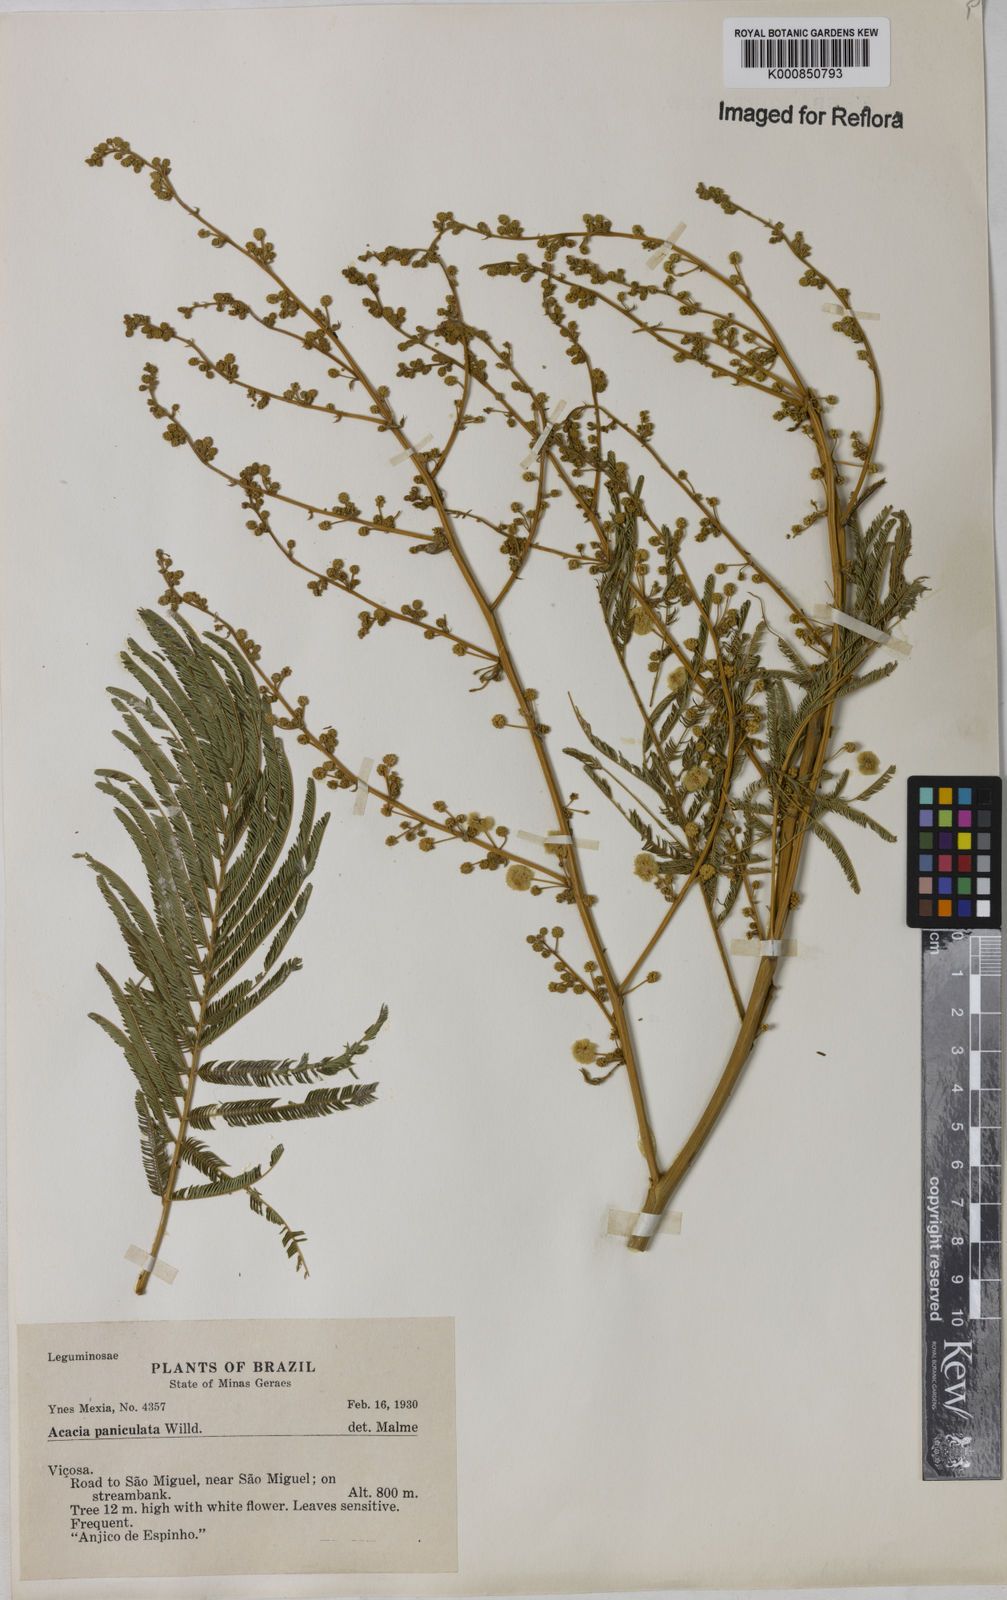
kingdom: Plantae
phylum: Tracheophyta
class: Magnoliopsida
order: Fabales
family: Fabaceae
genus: Senegalia
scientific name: Senegalia tenuifolia
